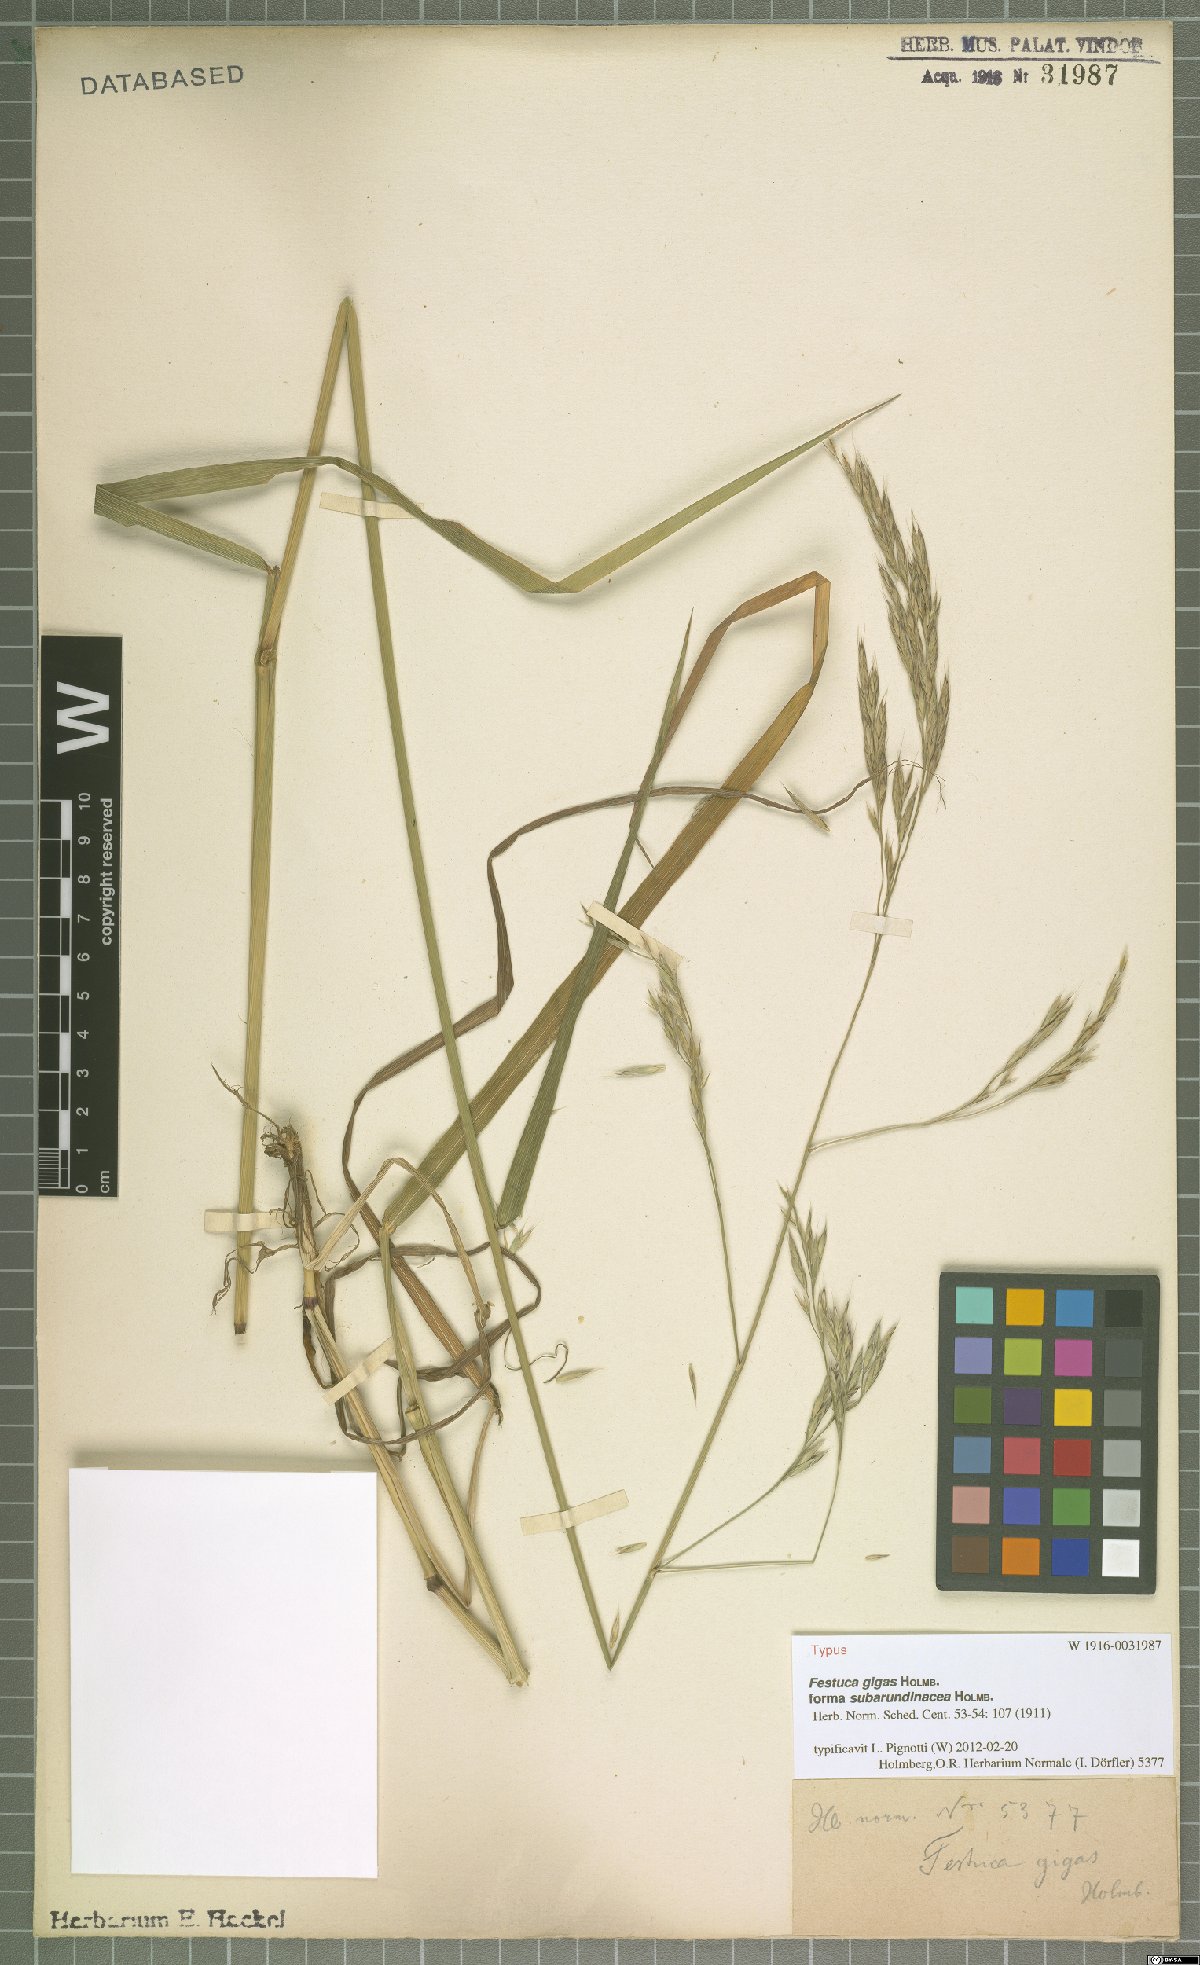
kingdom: Plantae
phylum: Tracheophyta
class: Liliopsida
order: Poales
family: Poaceae
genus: Lolium
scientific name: Lolium fleischeri
